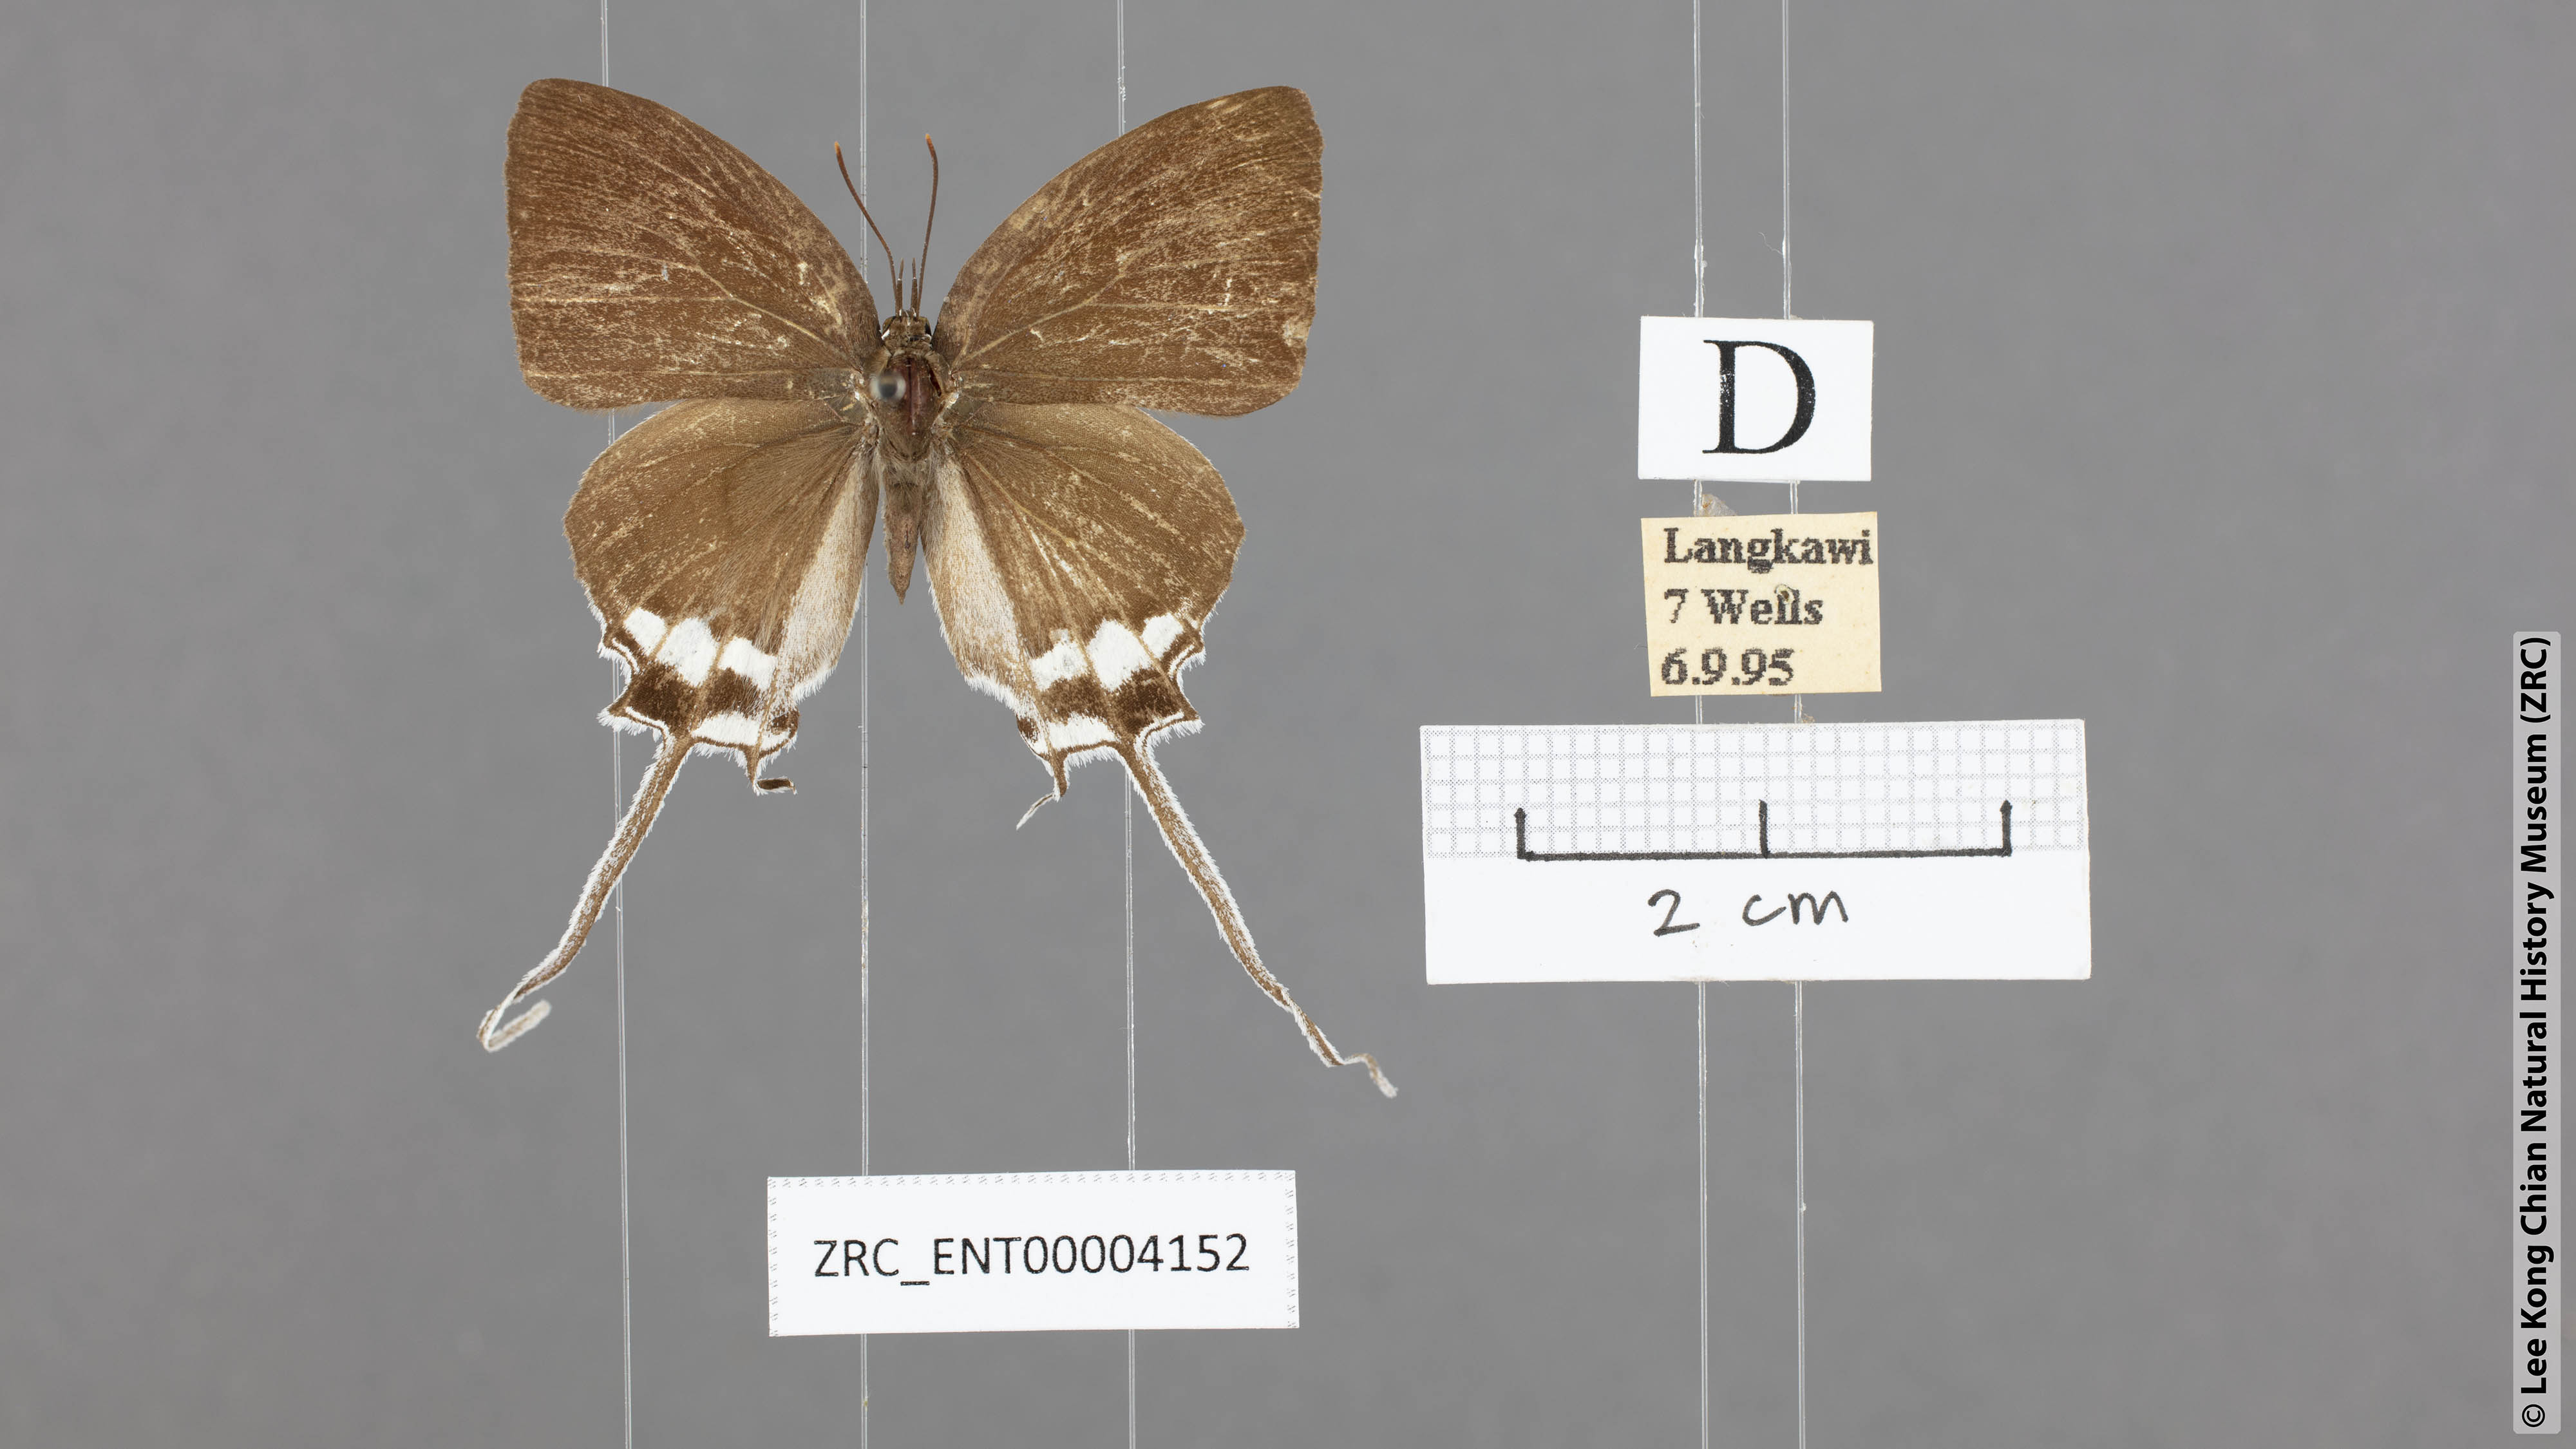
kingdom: Animalia
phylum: Arthropoda
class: Insecta
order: Lepidoptera
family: Lycaenidae
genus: Cheritra
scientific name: Cheritra freja
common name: Common imperial
